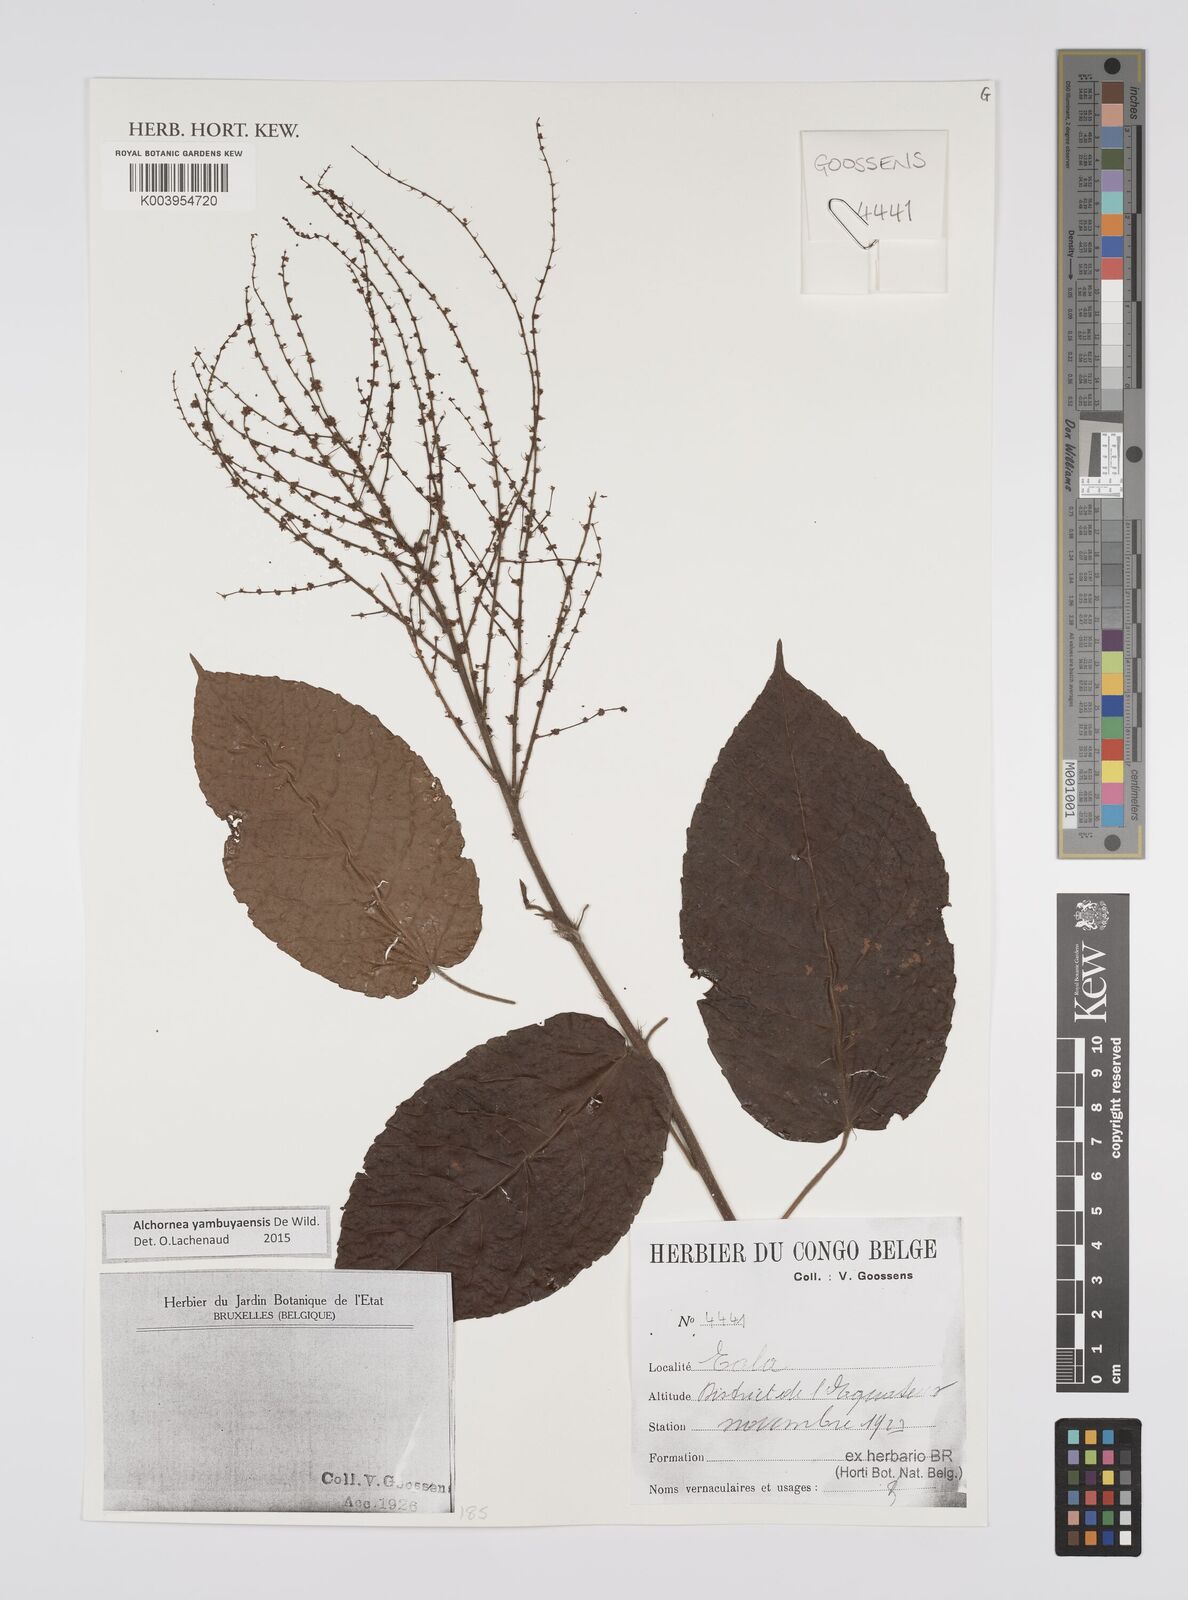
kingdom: Plantae
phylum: Tracheophyta
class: Magnoliopsida
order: Malpighiales
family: Euphorbiaceae
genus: Alchornea
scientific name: Alchornea yambuyaensis
